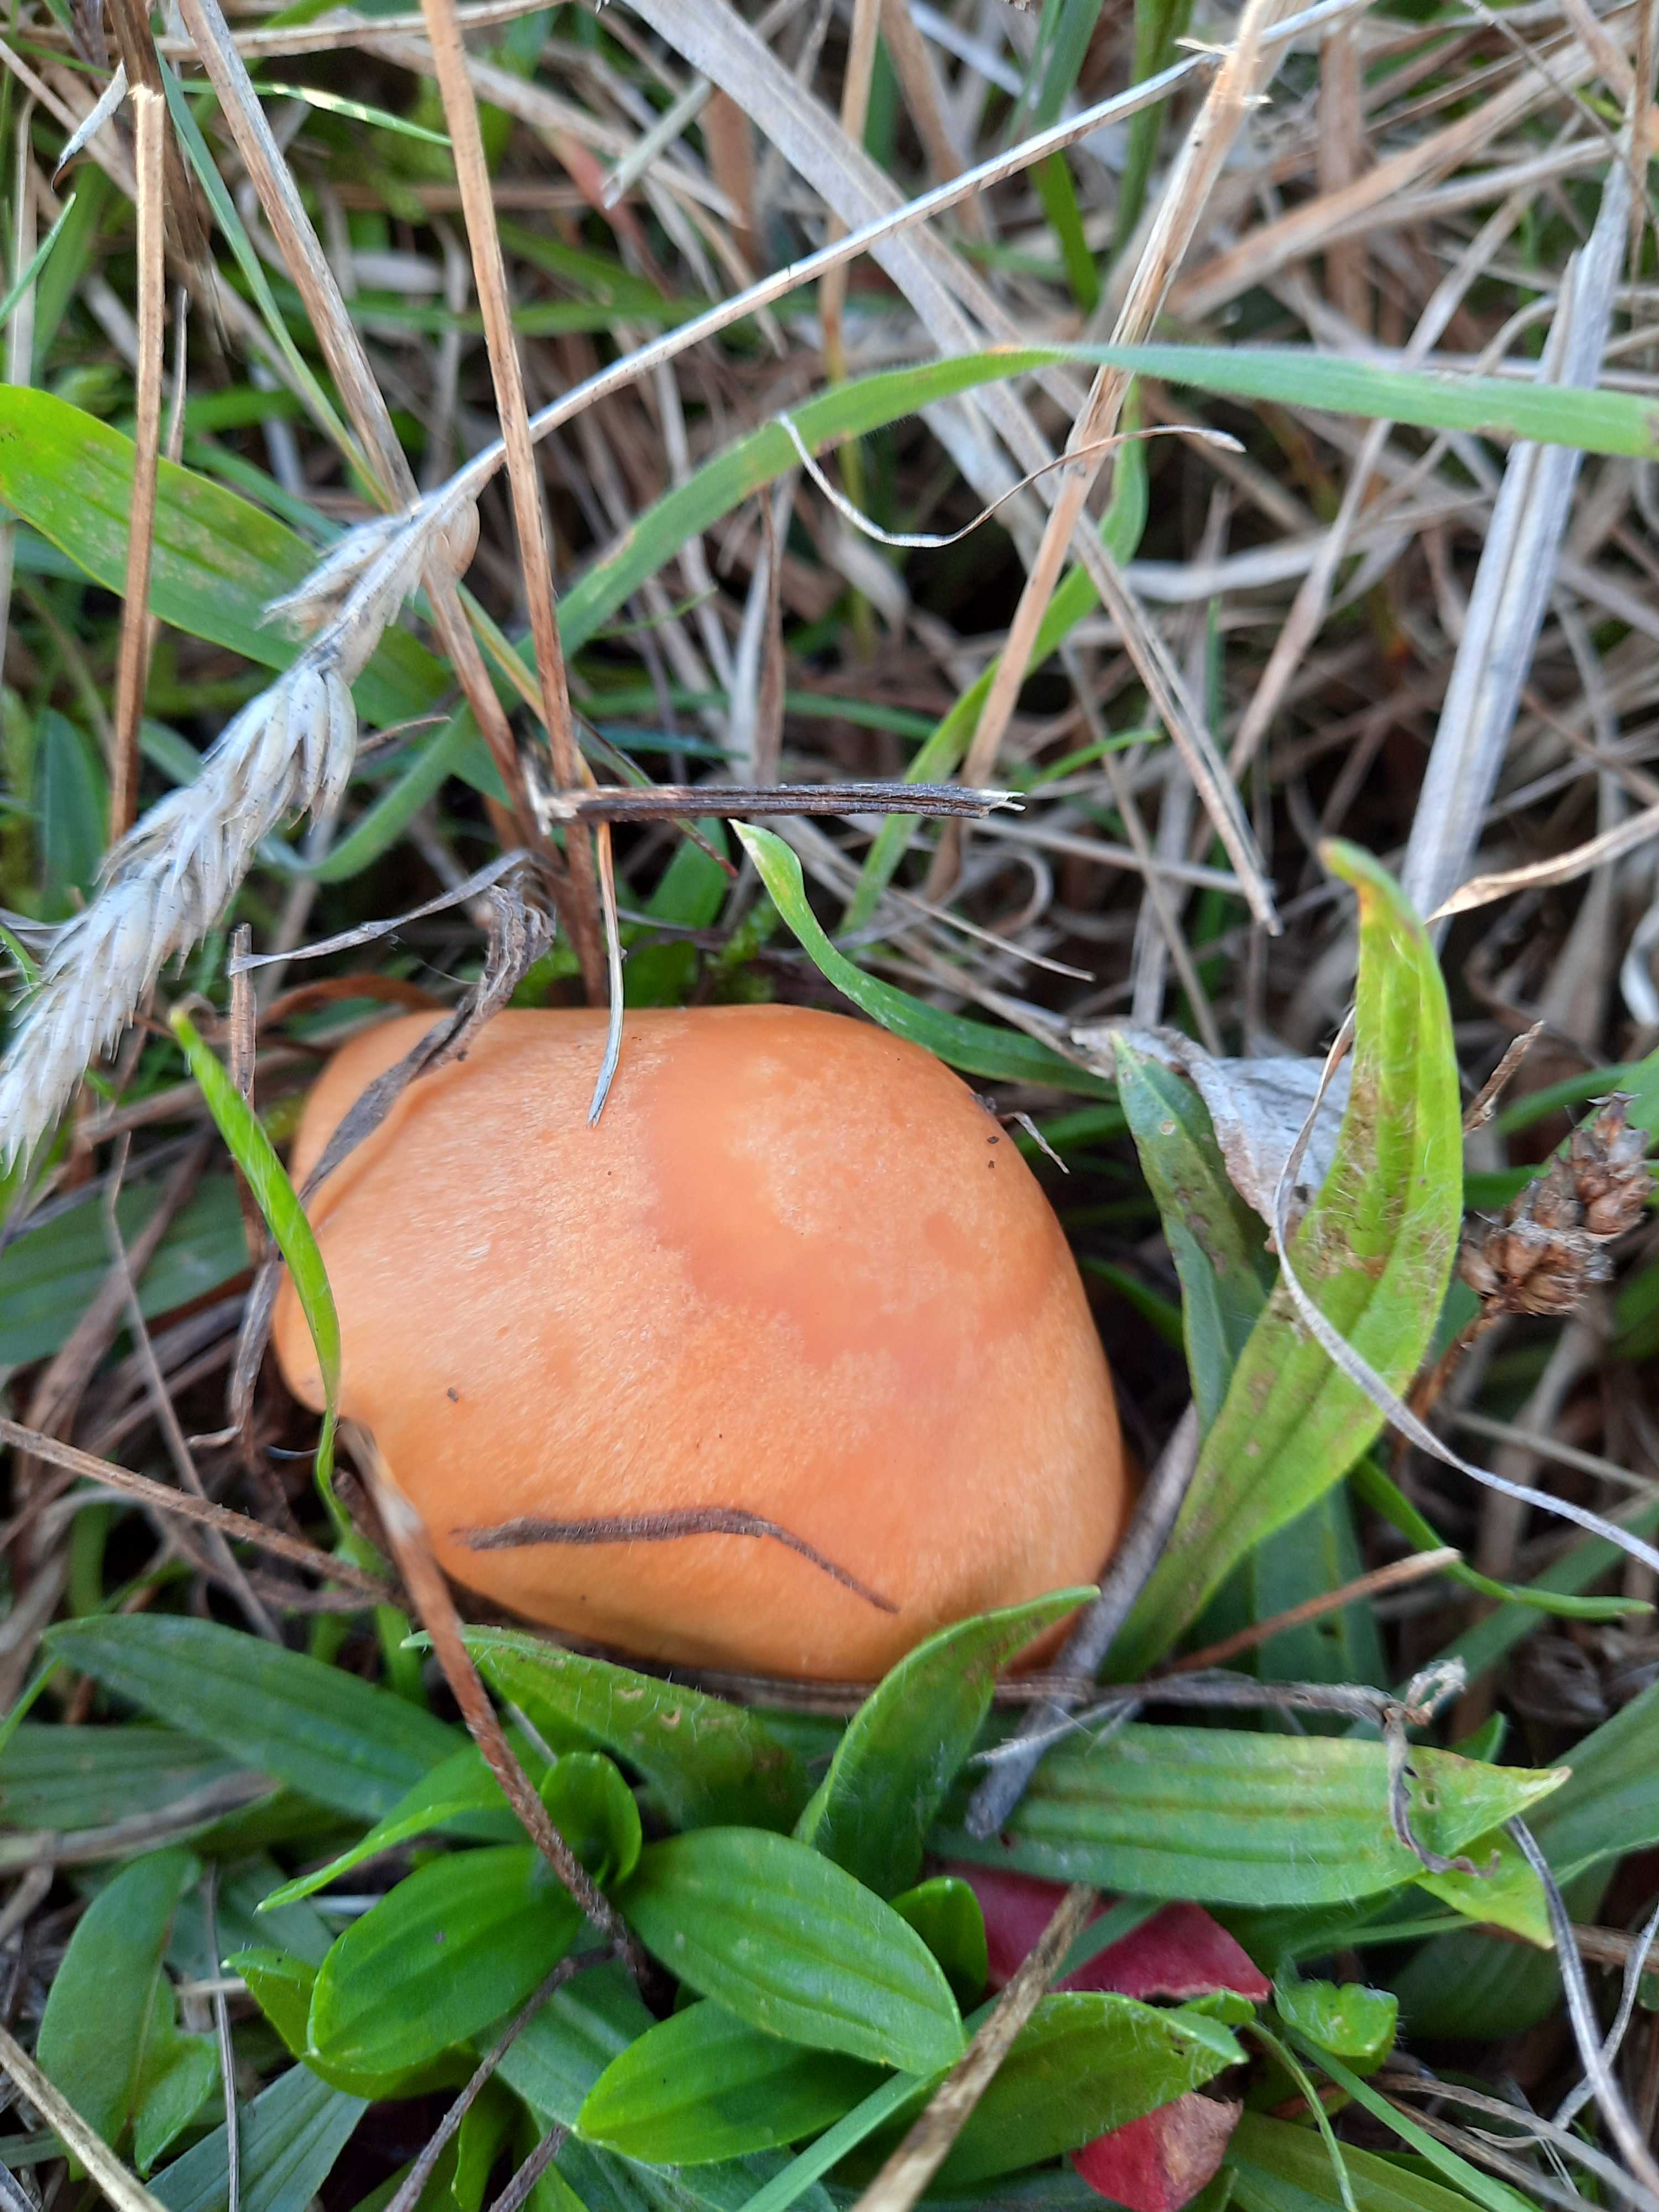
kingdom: Fungi
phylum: Basidiomycota
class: Agaricomycetes
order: Agaricales
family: Hygrophoraceae
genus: Cuphophyllus
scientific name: Cuphophyllus pratensis
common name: eng-vokshat
